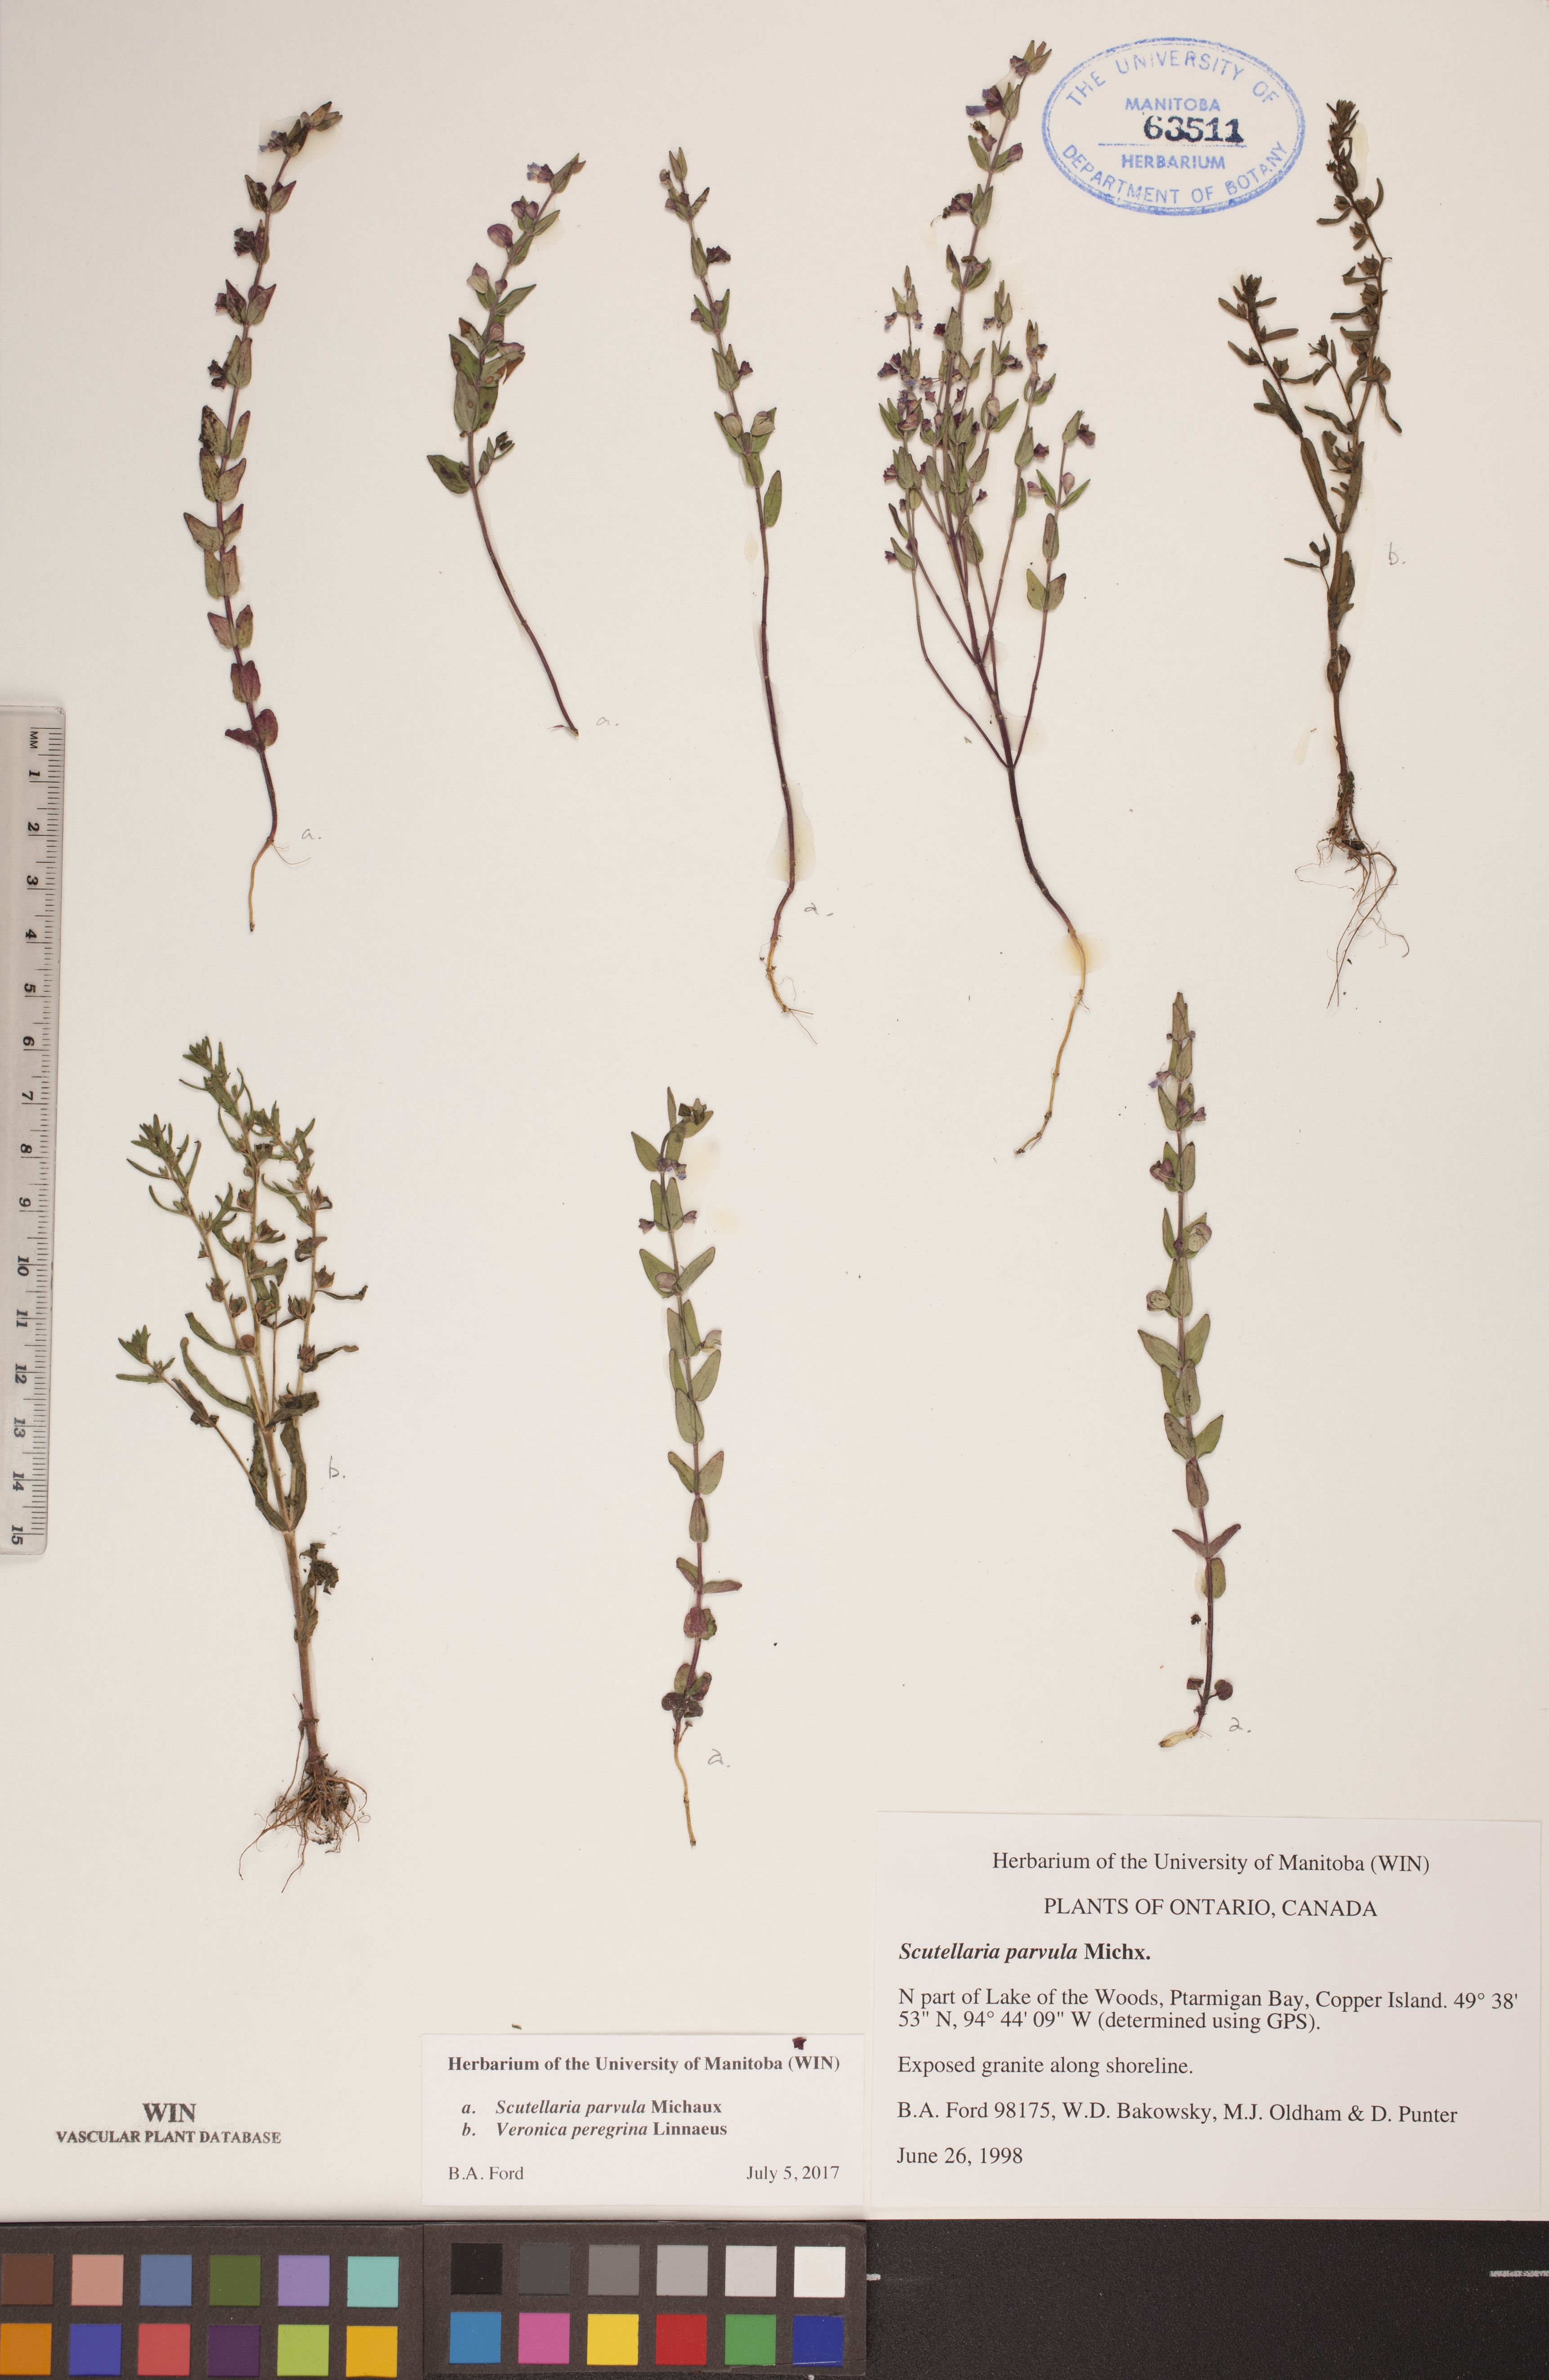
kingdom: Plantae
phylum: Tracheophyta
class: Magnoliopsida
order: Lamiales
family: Lamiaceae
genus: Scutellaria
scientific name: Scutellaria parvula
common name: Little scullcap
